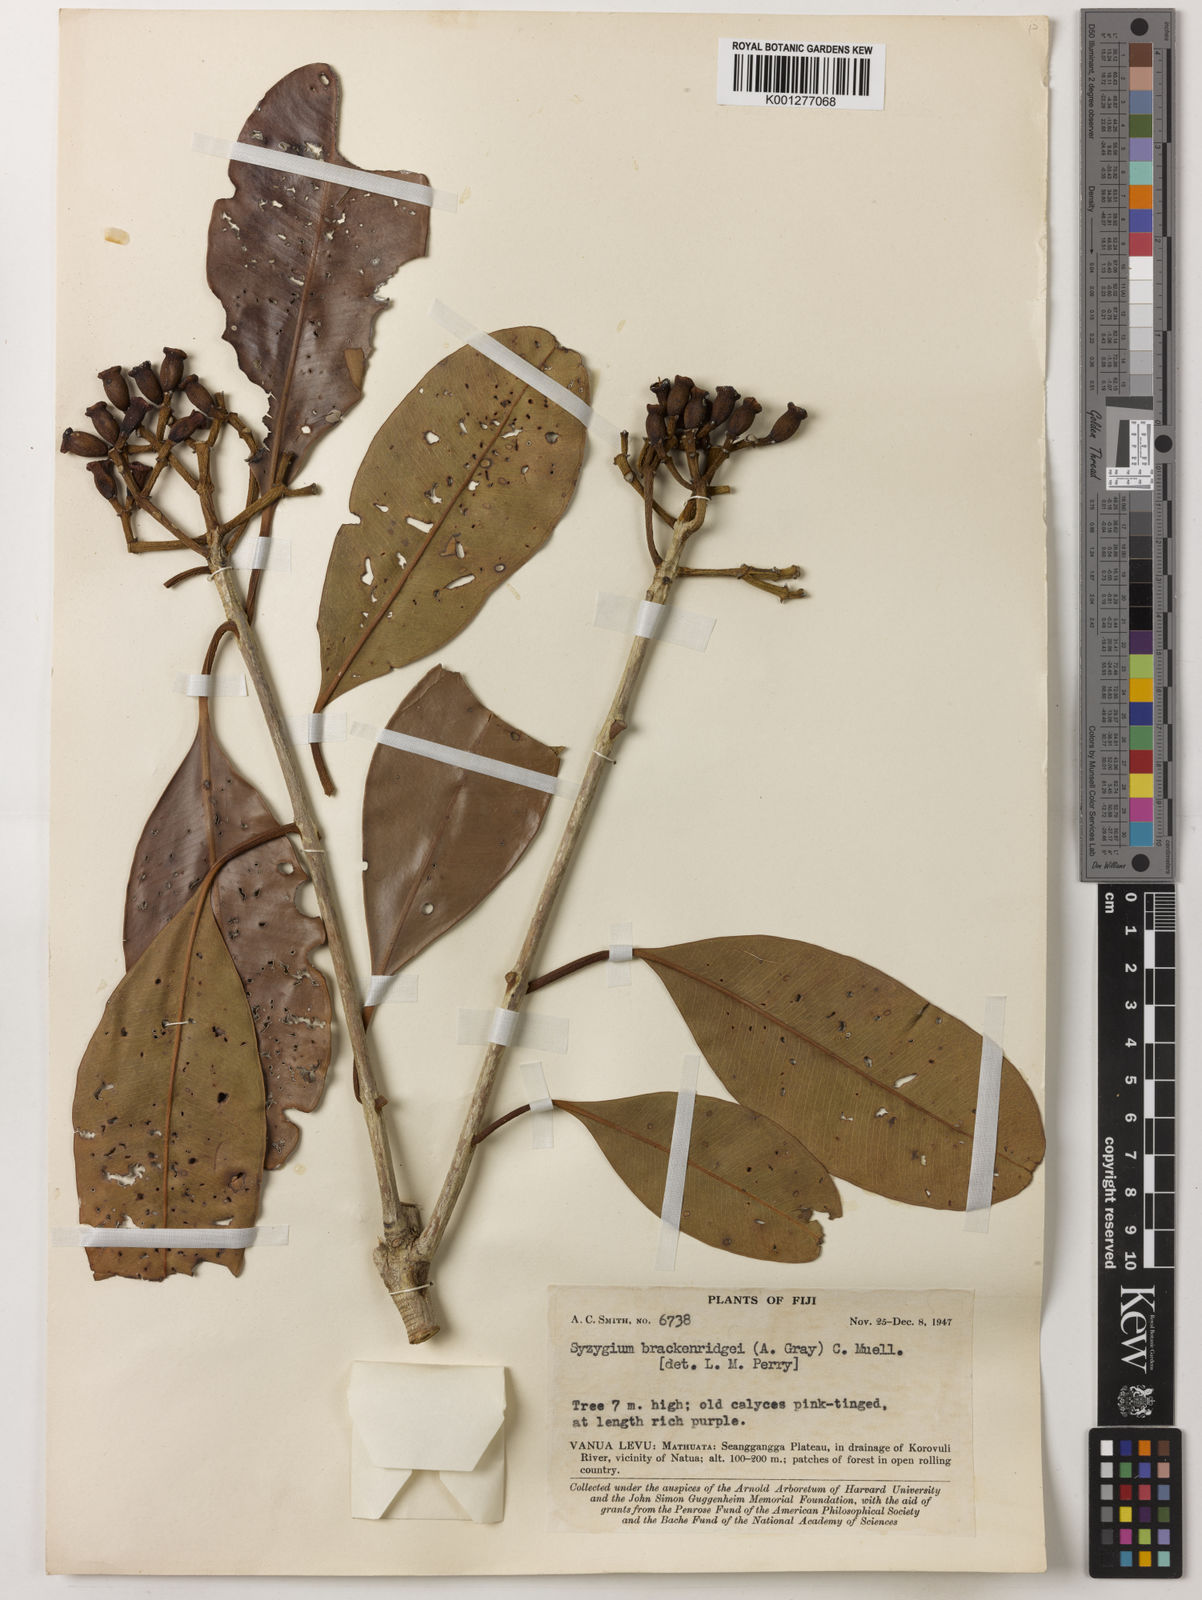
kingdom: Plantae
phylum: Tracheophyta
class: Magnoliopsida
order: Myrtales
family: Myrtaceae
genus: Syzygium
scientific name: Syzygium
